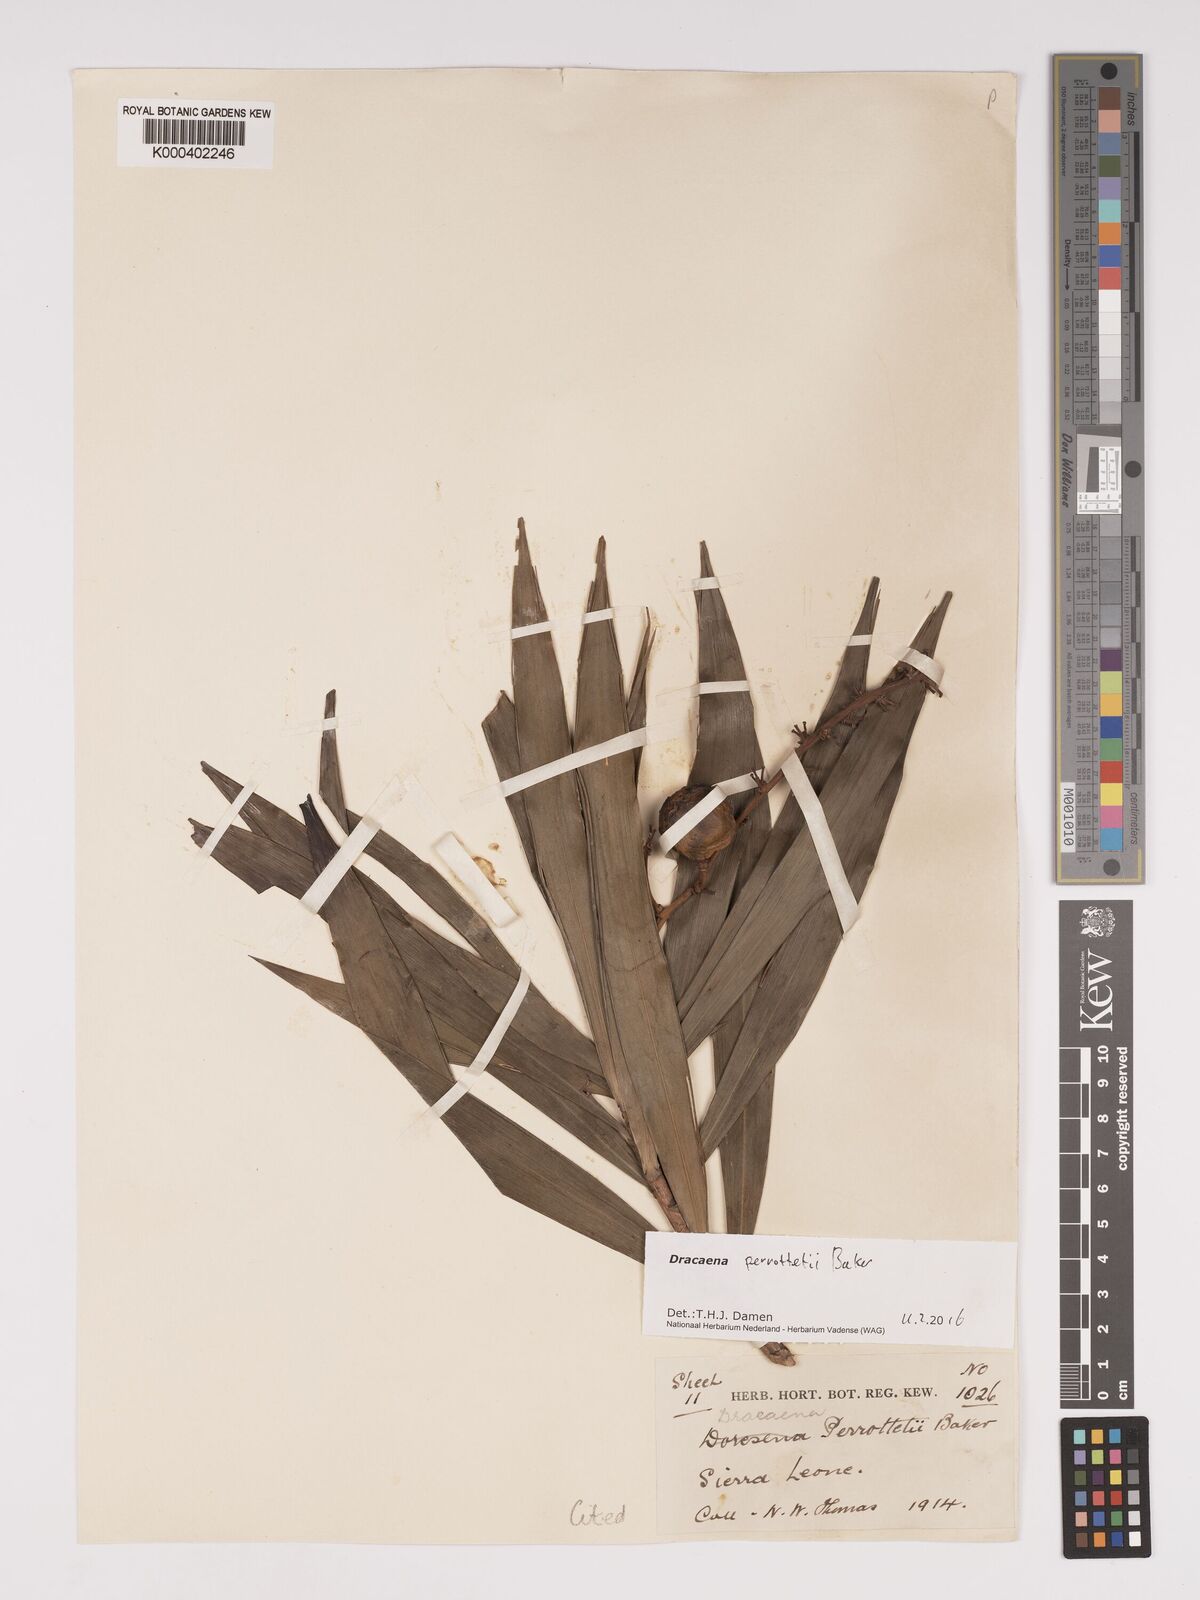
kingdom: Plantae
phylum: Tracheophyta
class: Liliopsida
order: Asparagales
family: Asparagaceae
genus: Dracaena
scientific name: Dracaena perrottetii
